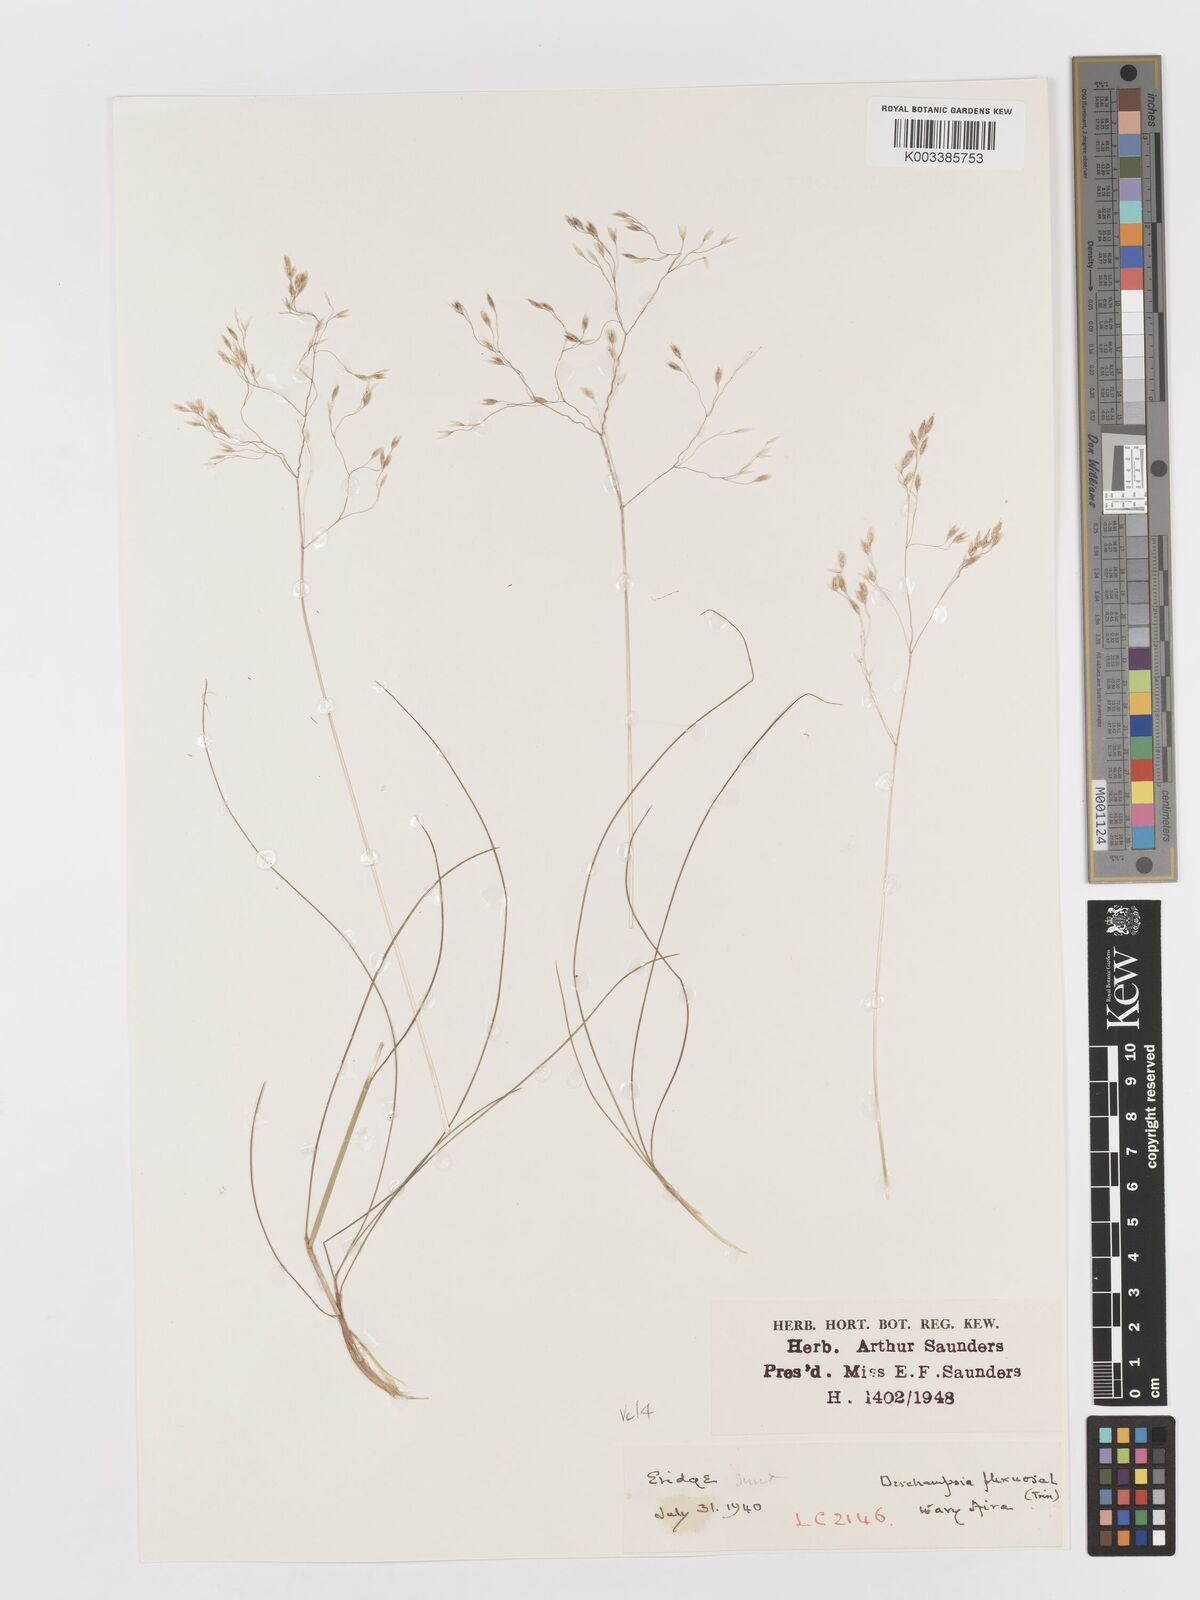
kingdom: Plantae
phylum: Tracheophyta
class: Liliopsida
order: Poales
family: Poaceae
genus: Avenella
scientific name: Avenella flexuosa
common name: Wavy hairgrass
